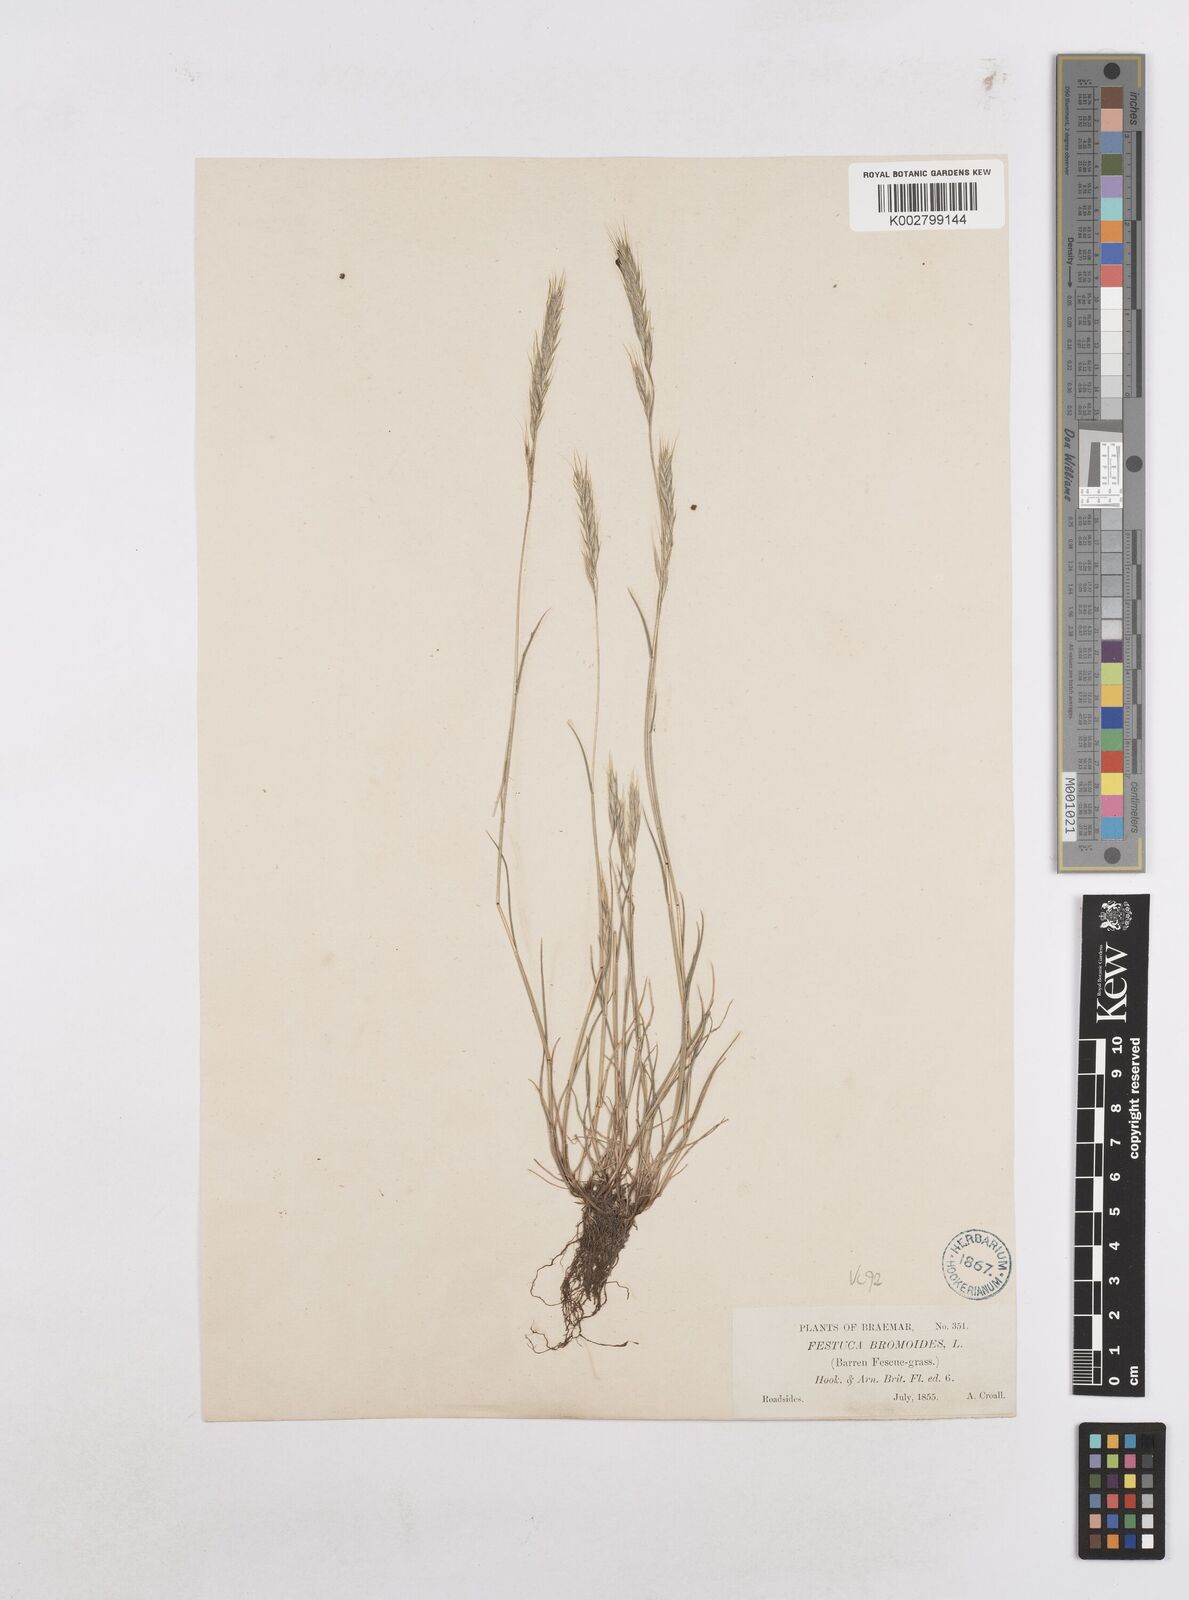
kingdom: Plantae
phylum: Tracheophyta
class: Liliopsida
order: Poales
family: Poaceae
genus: Festuca
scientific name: Festuca bromoides
